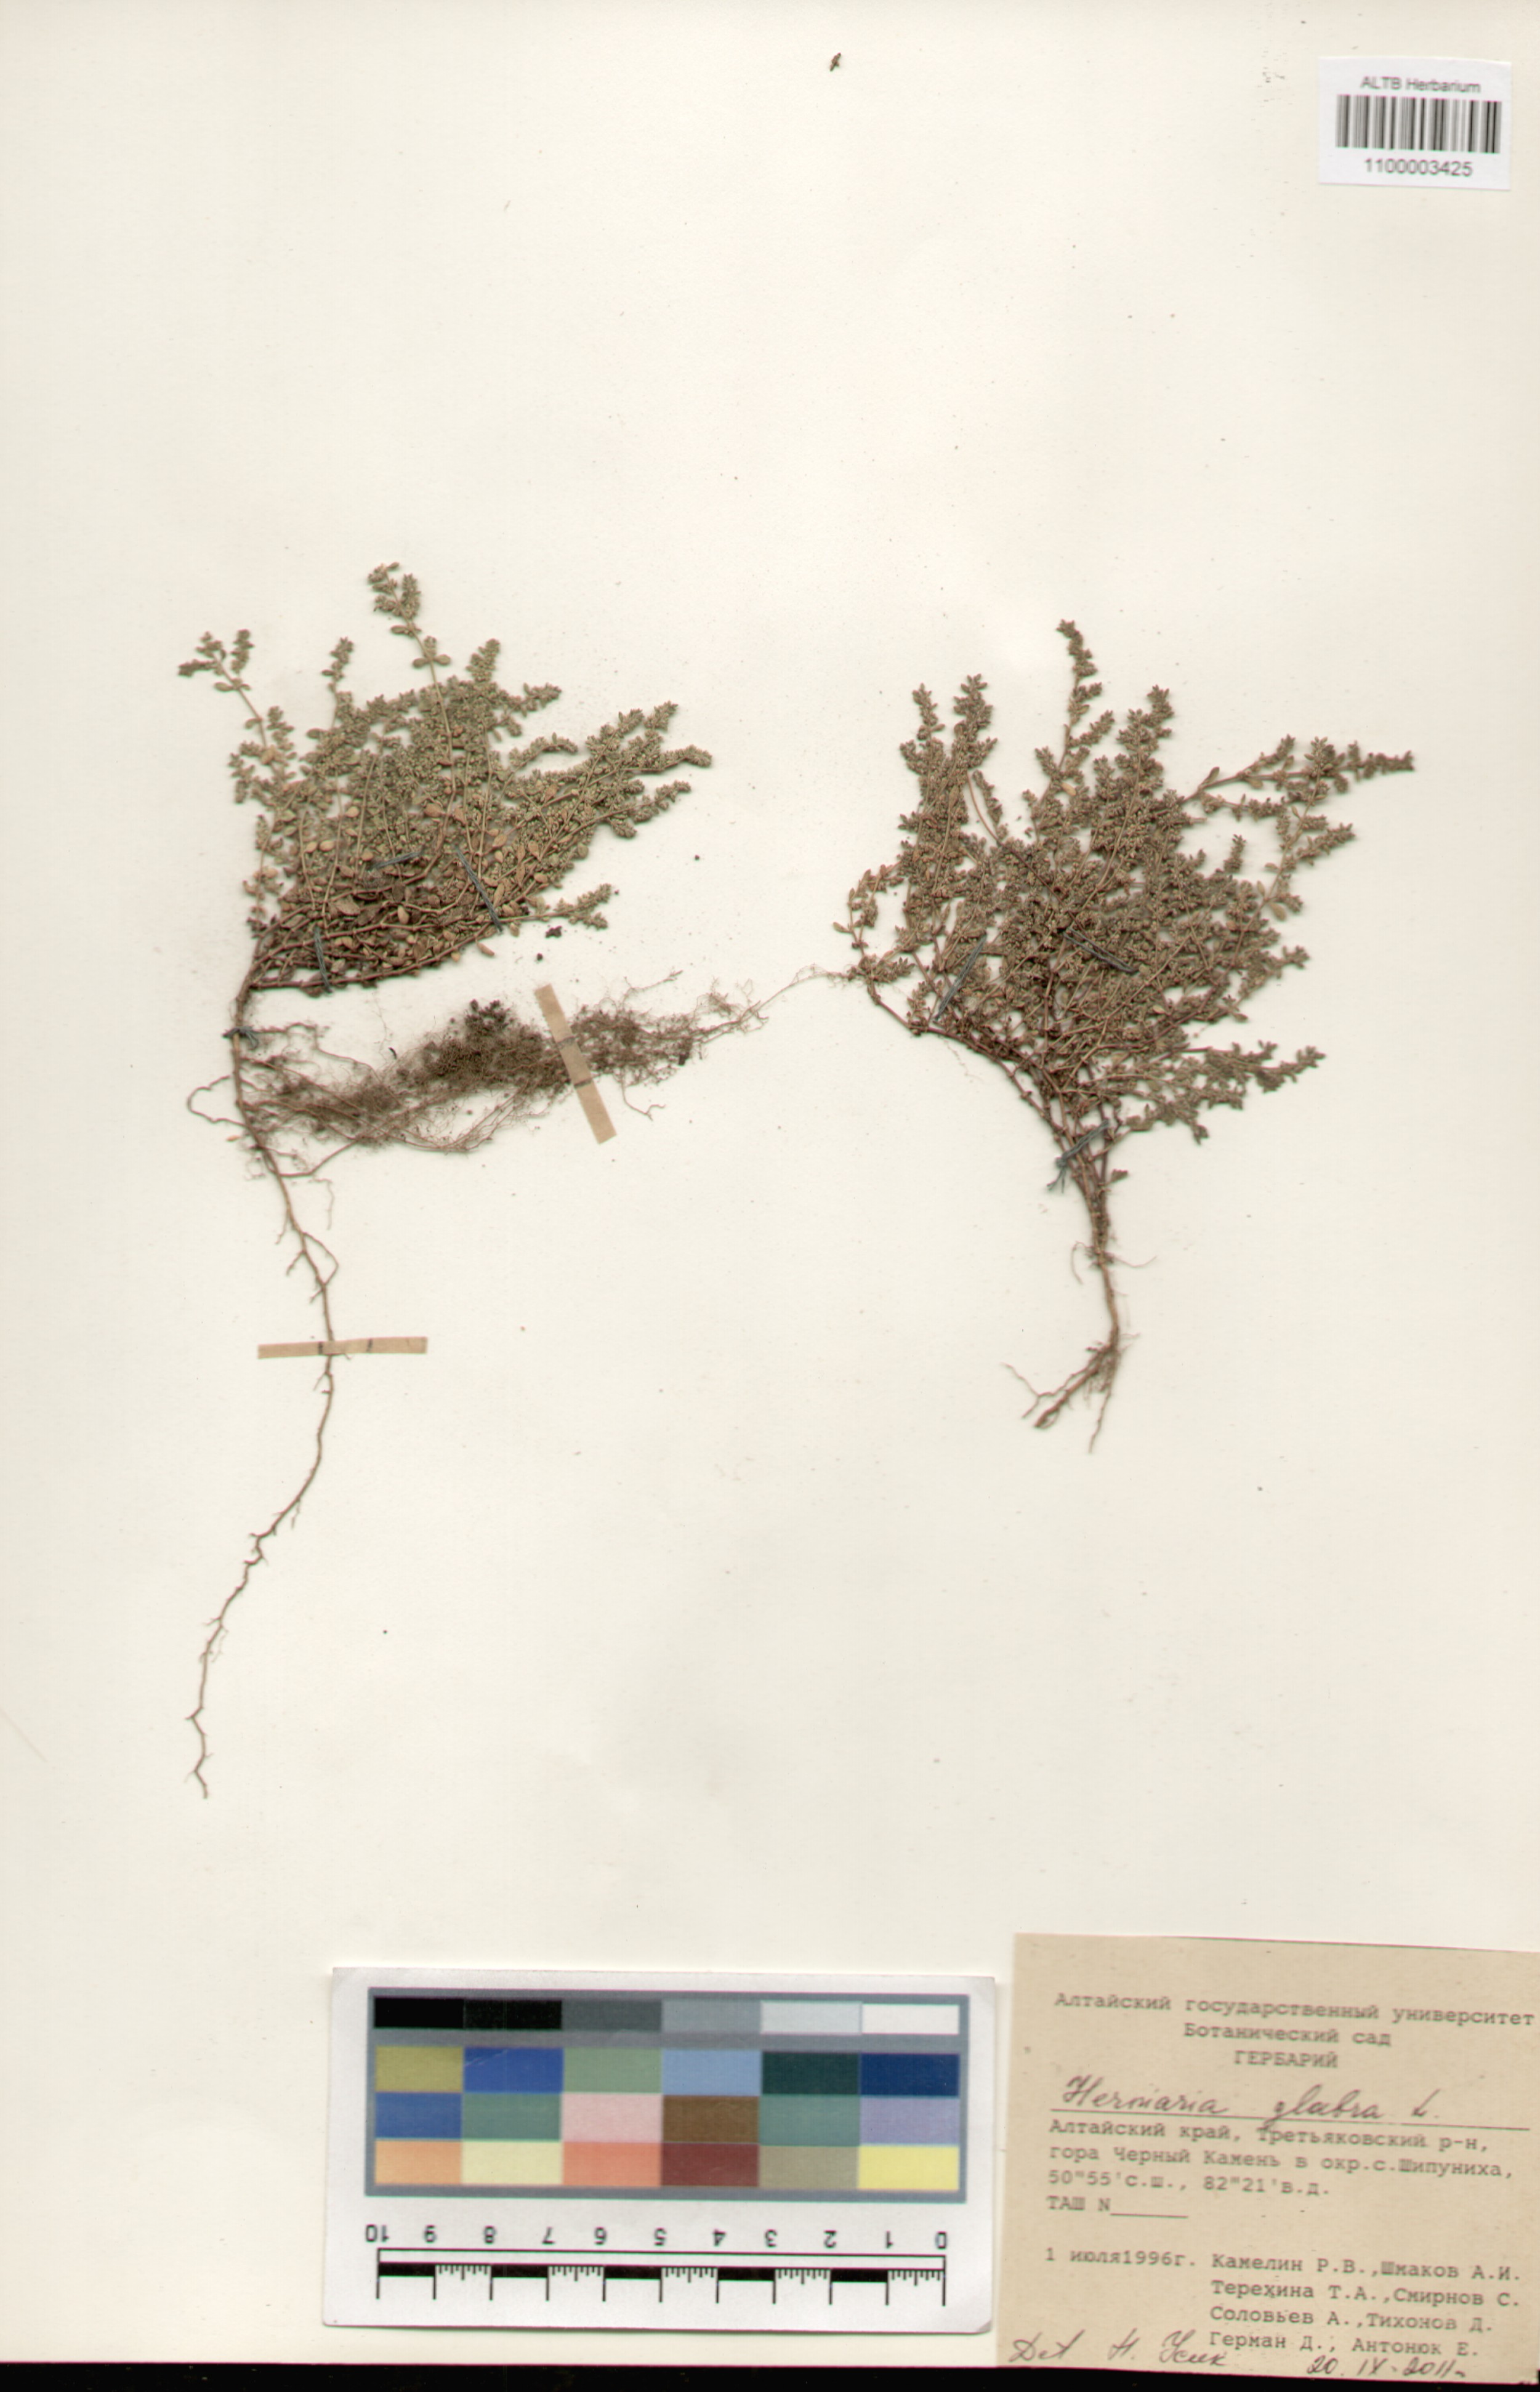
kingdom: Plantae
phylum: Tracheophyta
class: Magnoliopsida
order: Caryophyllales
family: Caryophyllaceae
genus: Herniaria
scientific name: Herniaria glabra
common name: Smooth rupturewort
